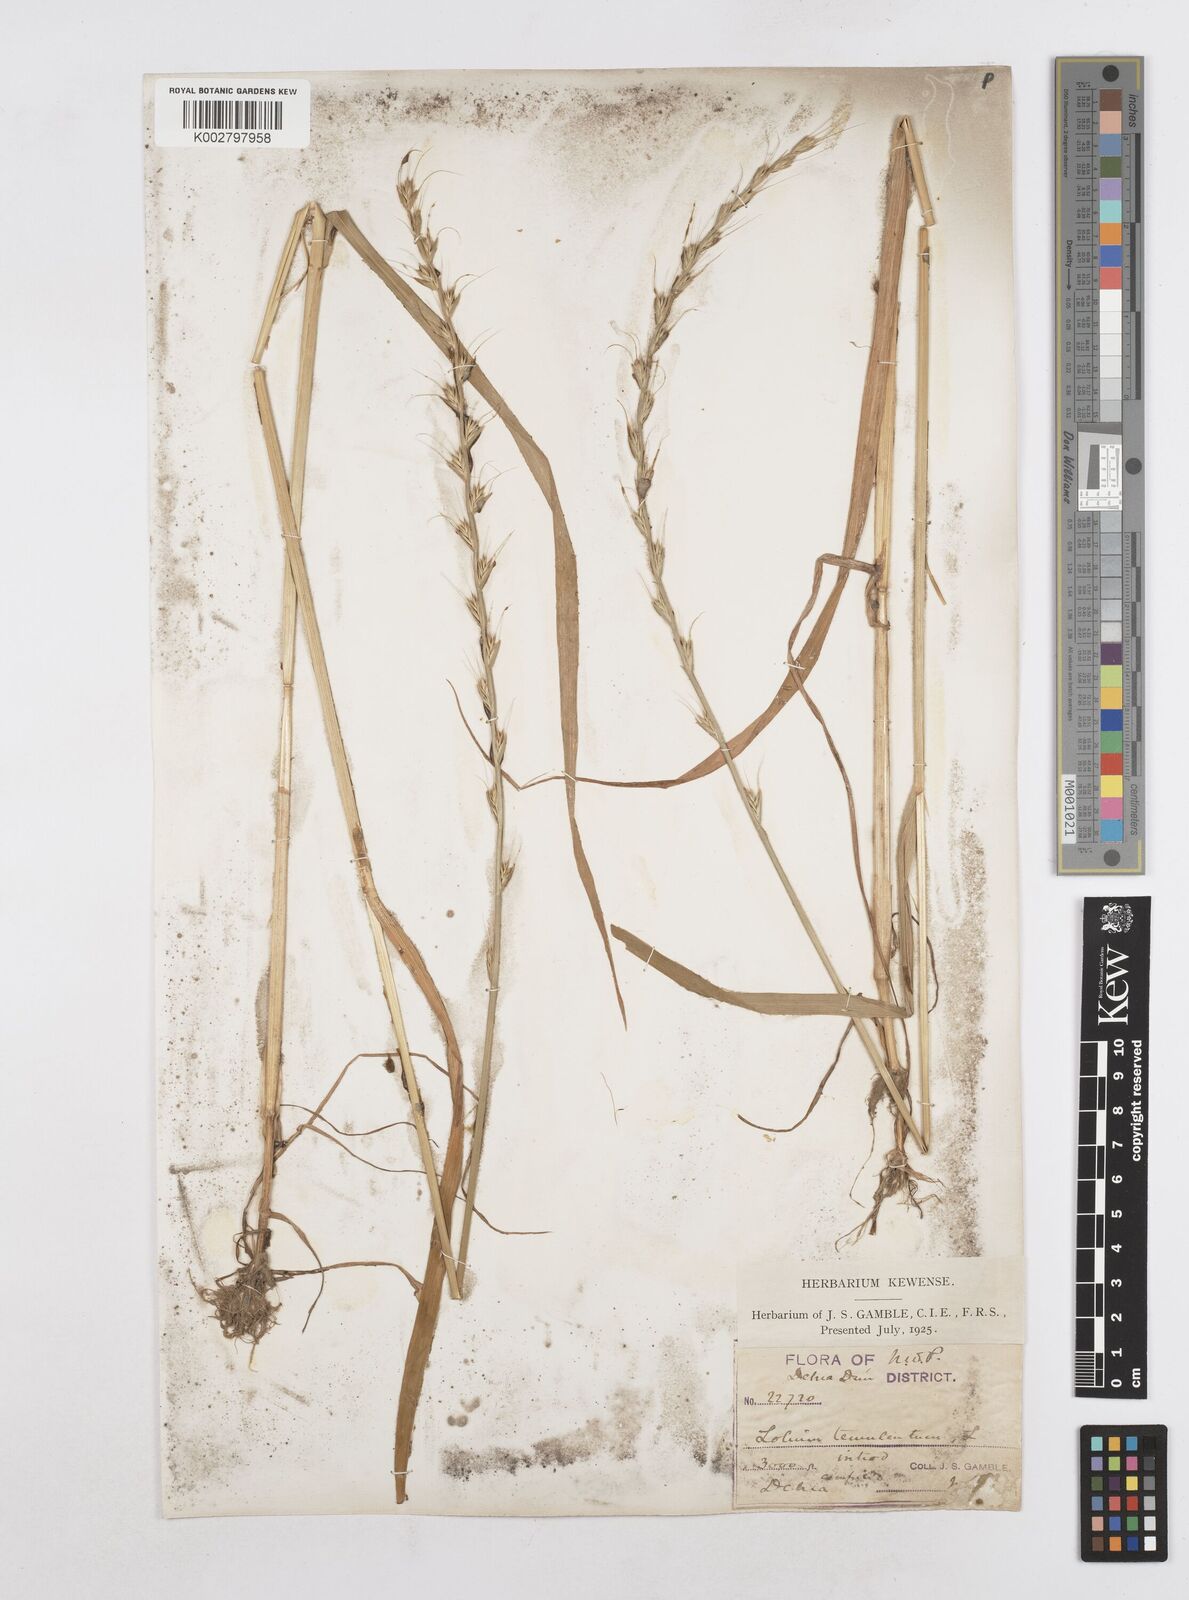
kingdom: Plantae
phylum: Tracheophyta
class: Liliopsida
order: Poales
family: Poaceae
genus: Lolium
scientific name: Lolium temulentum
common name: Darnel
